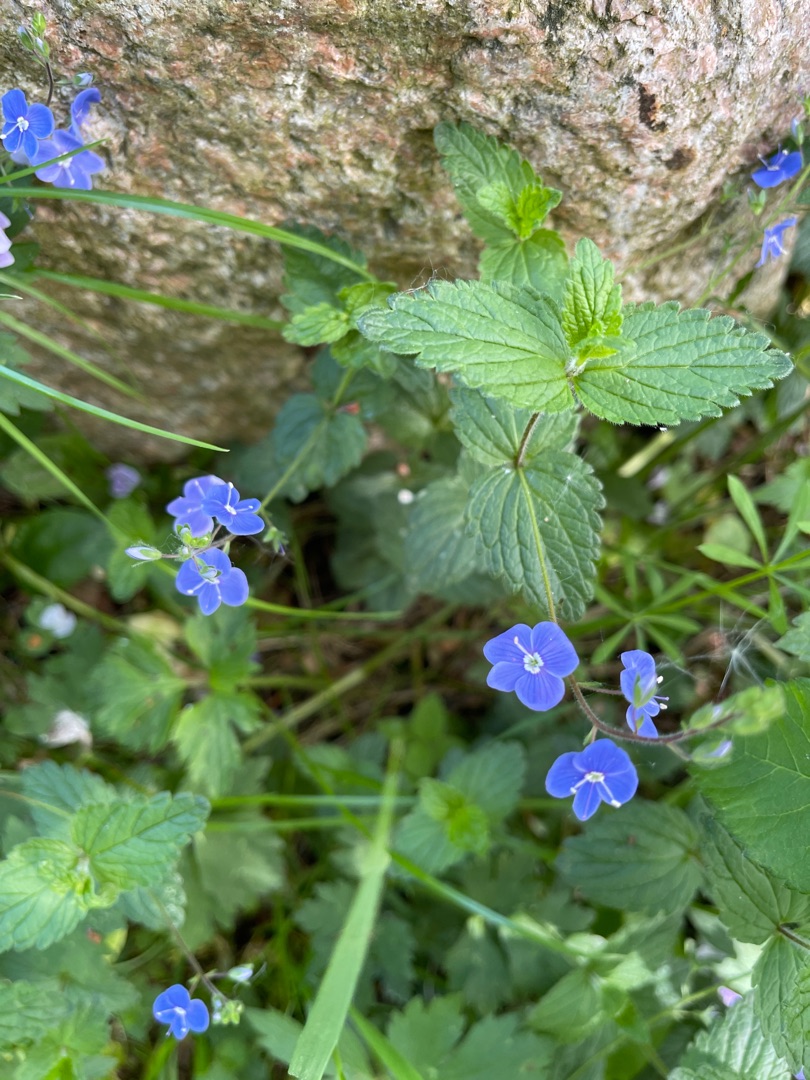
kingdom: Plantae
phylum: Tracheophyta
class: Magnoliopsida
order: Lamiales
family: Plantaginaceae
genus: Veronica
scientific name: Veronica chamaedrys
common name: Tveskægget ærenpris
